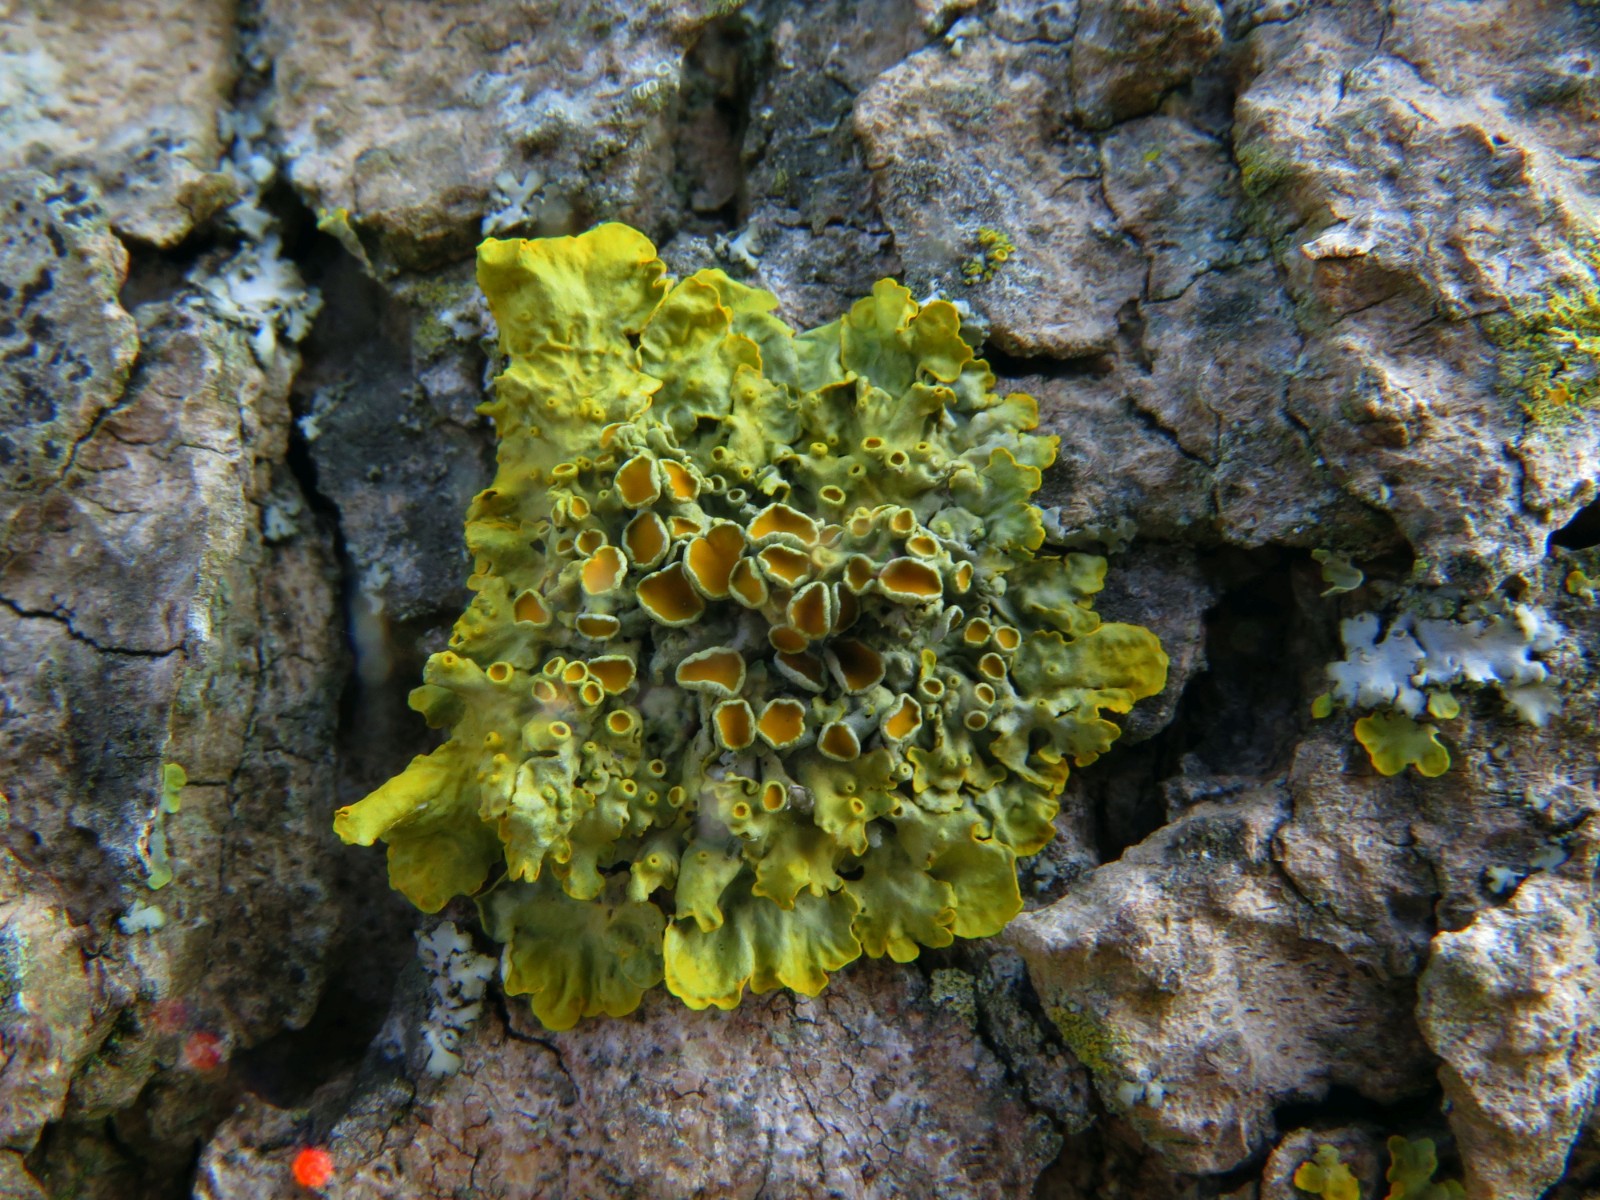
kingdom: Fungi
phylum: Ascomycota
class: Lecanoromycetes
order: Teloschistales
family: Teloschistaceae
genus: Xanthoria
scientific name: Xanthoria parietina
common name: almindelig væggelav
